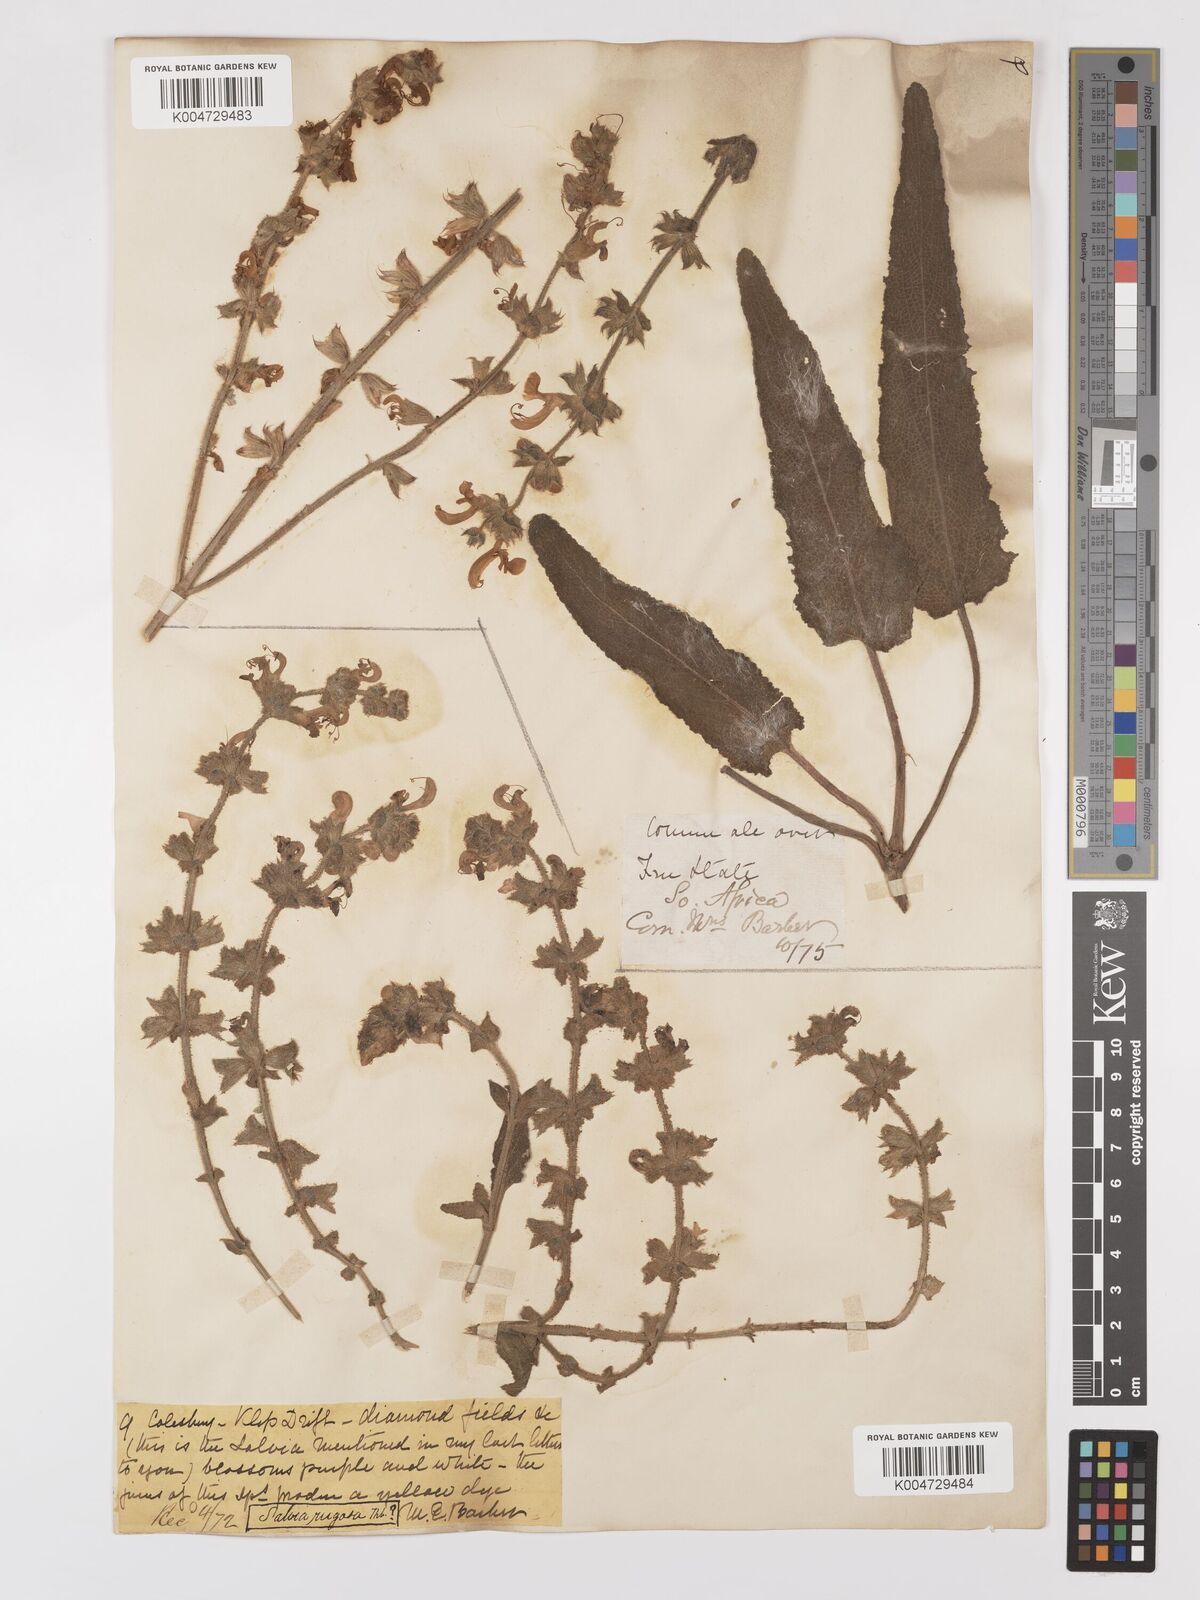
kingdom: Plantae
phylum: Tracheophyta
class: Magnoliopsida
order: Lamiales
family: Lamiaceae
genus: Salvia
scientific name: Salvia
